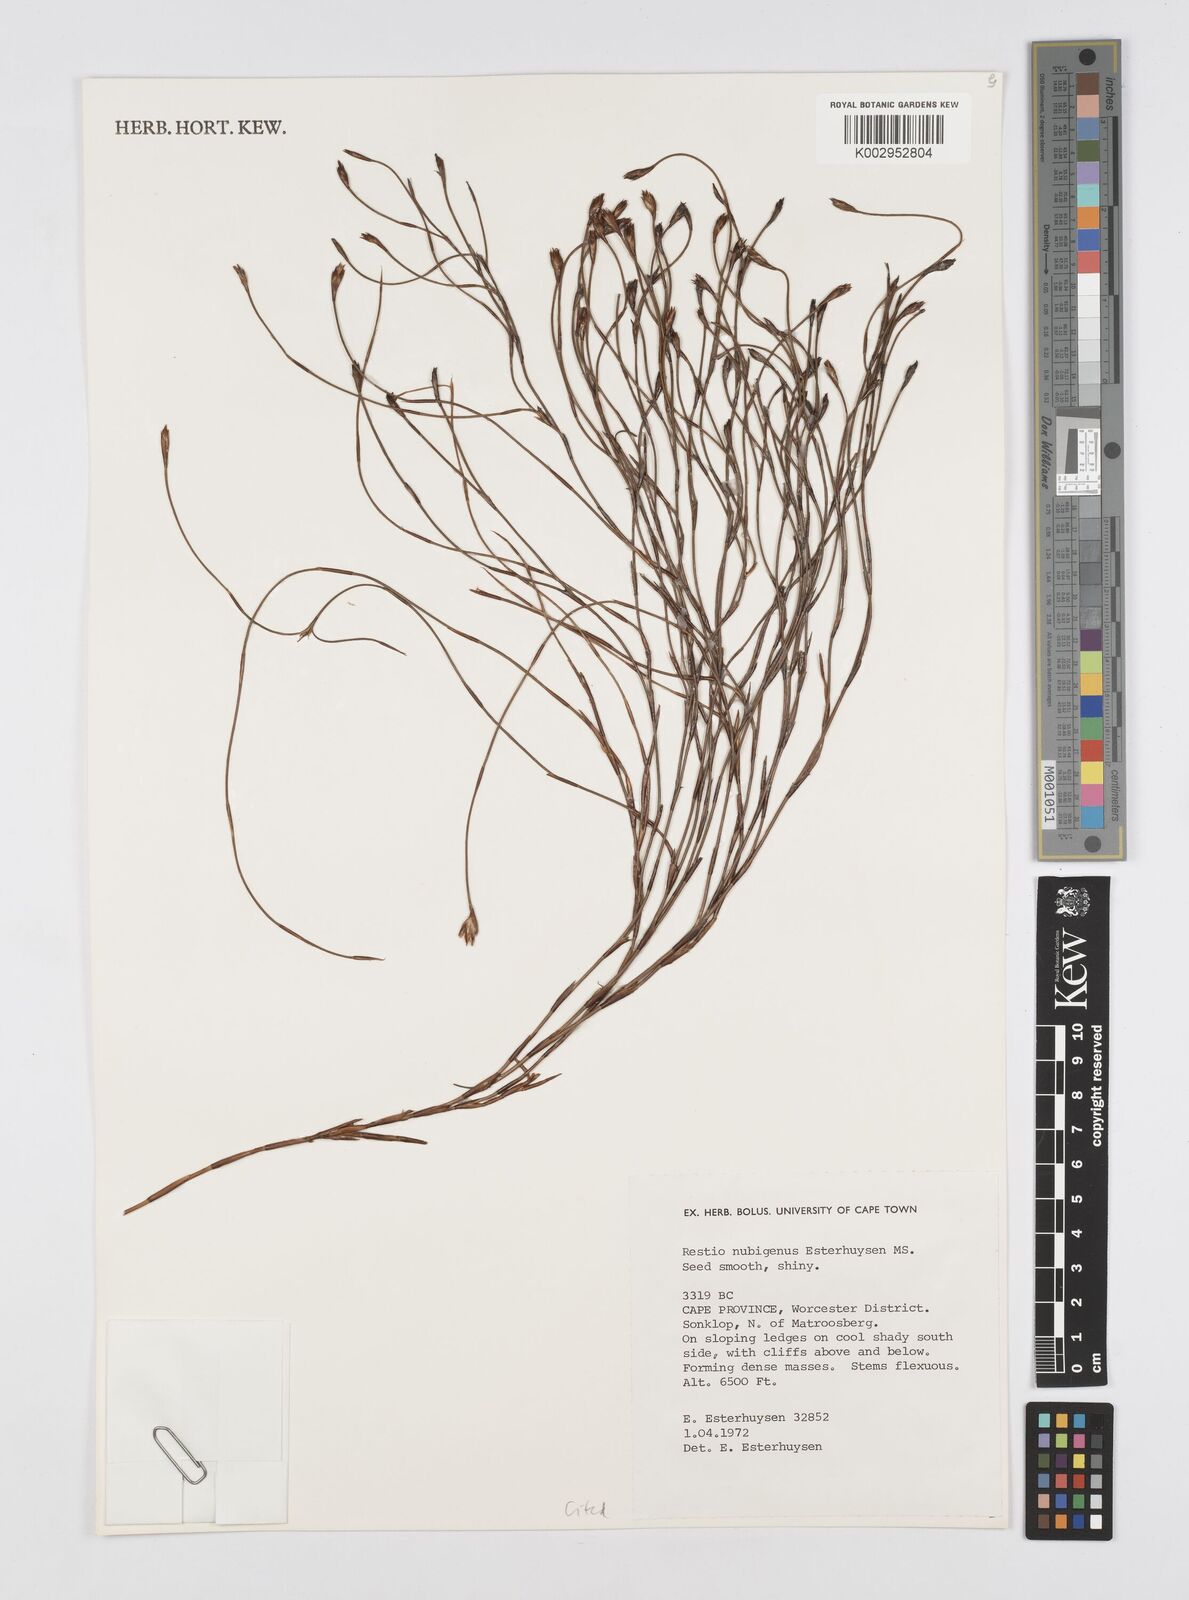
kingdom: Plantae
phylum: Tracheophyta
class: Liliopsida
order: Poales
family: Restionaceae
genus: Restio
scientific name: Restio nubigenus
